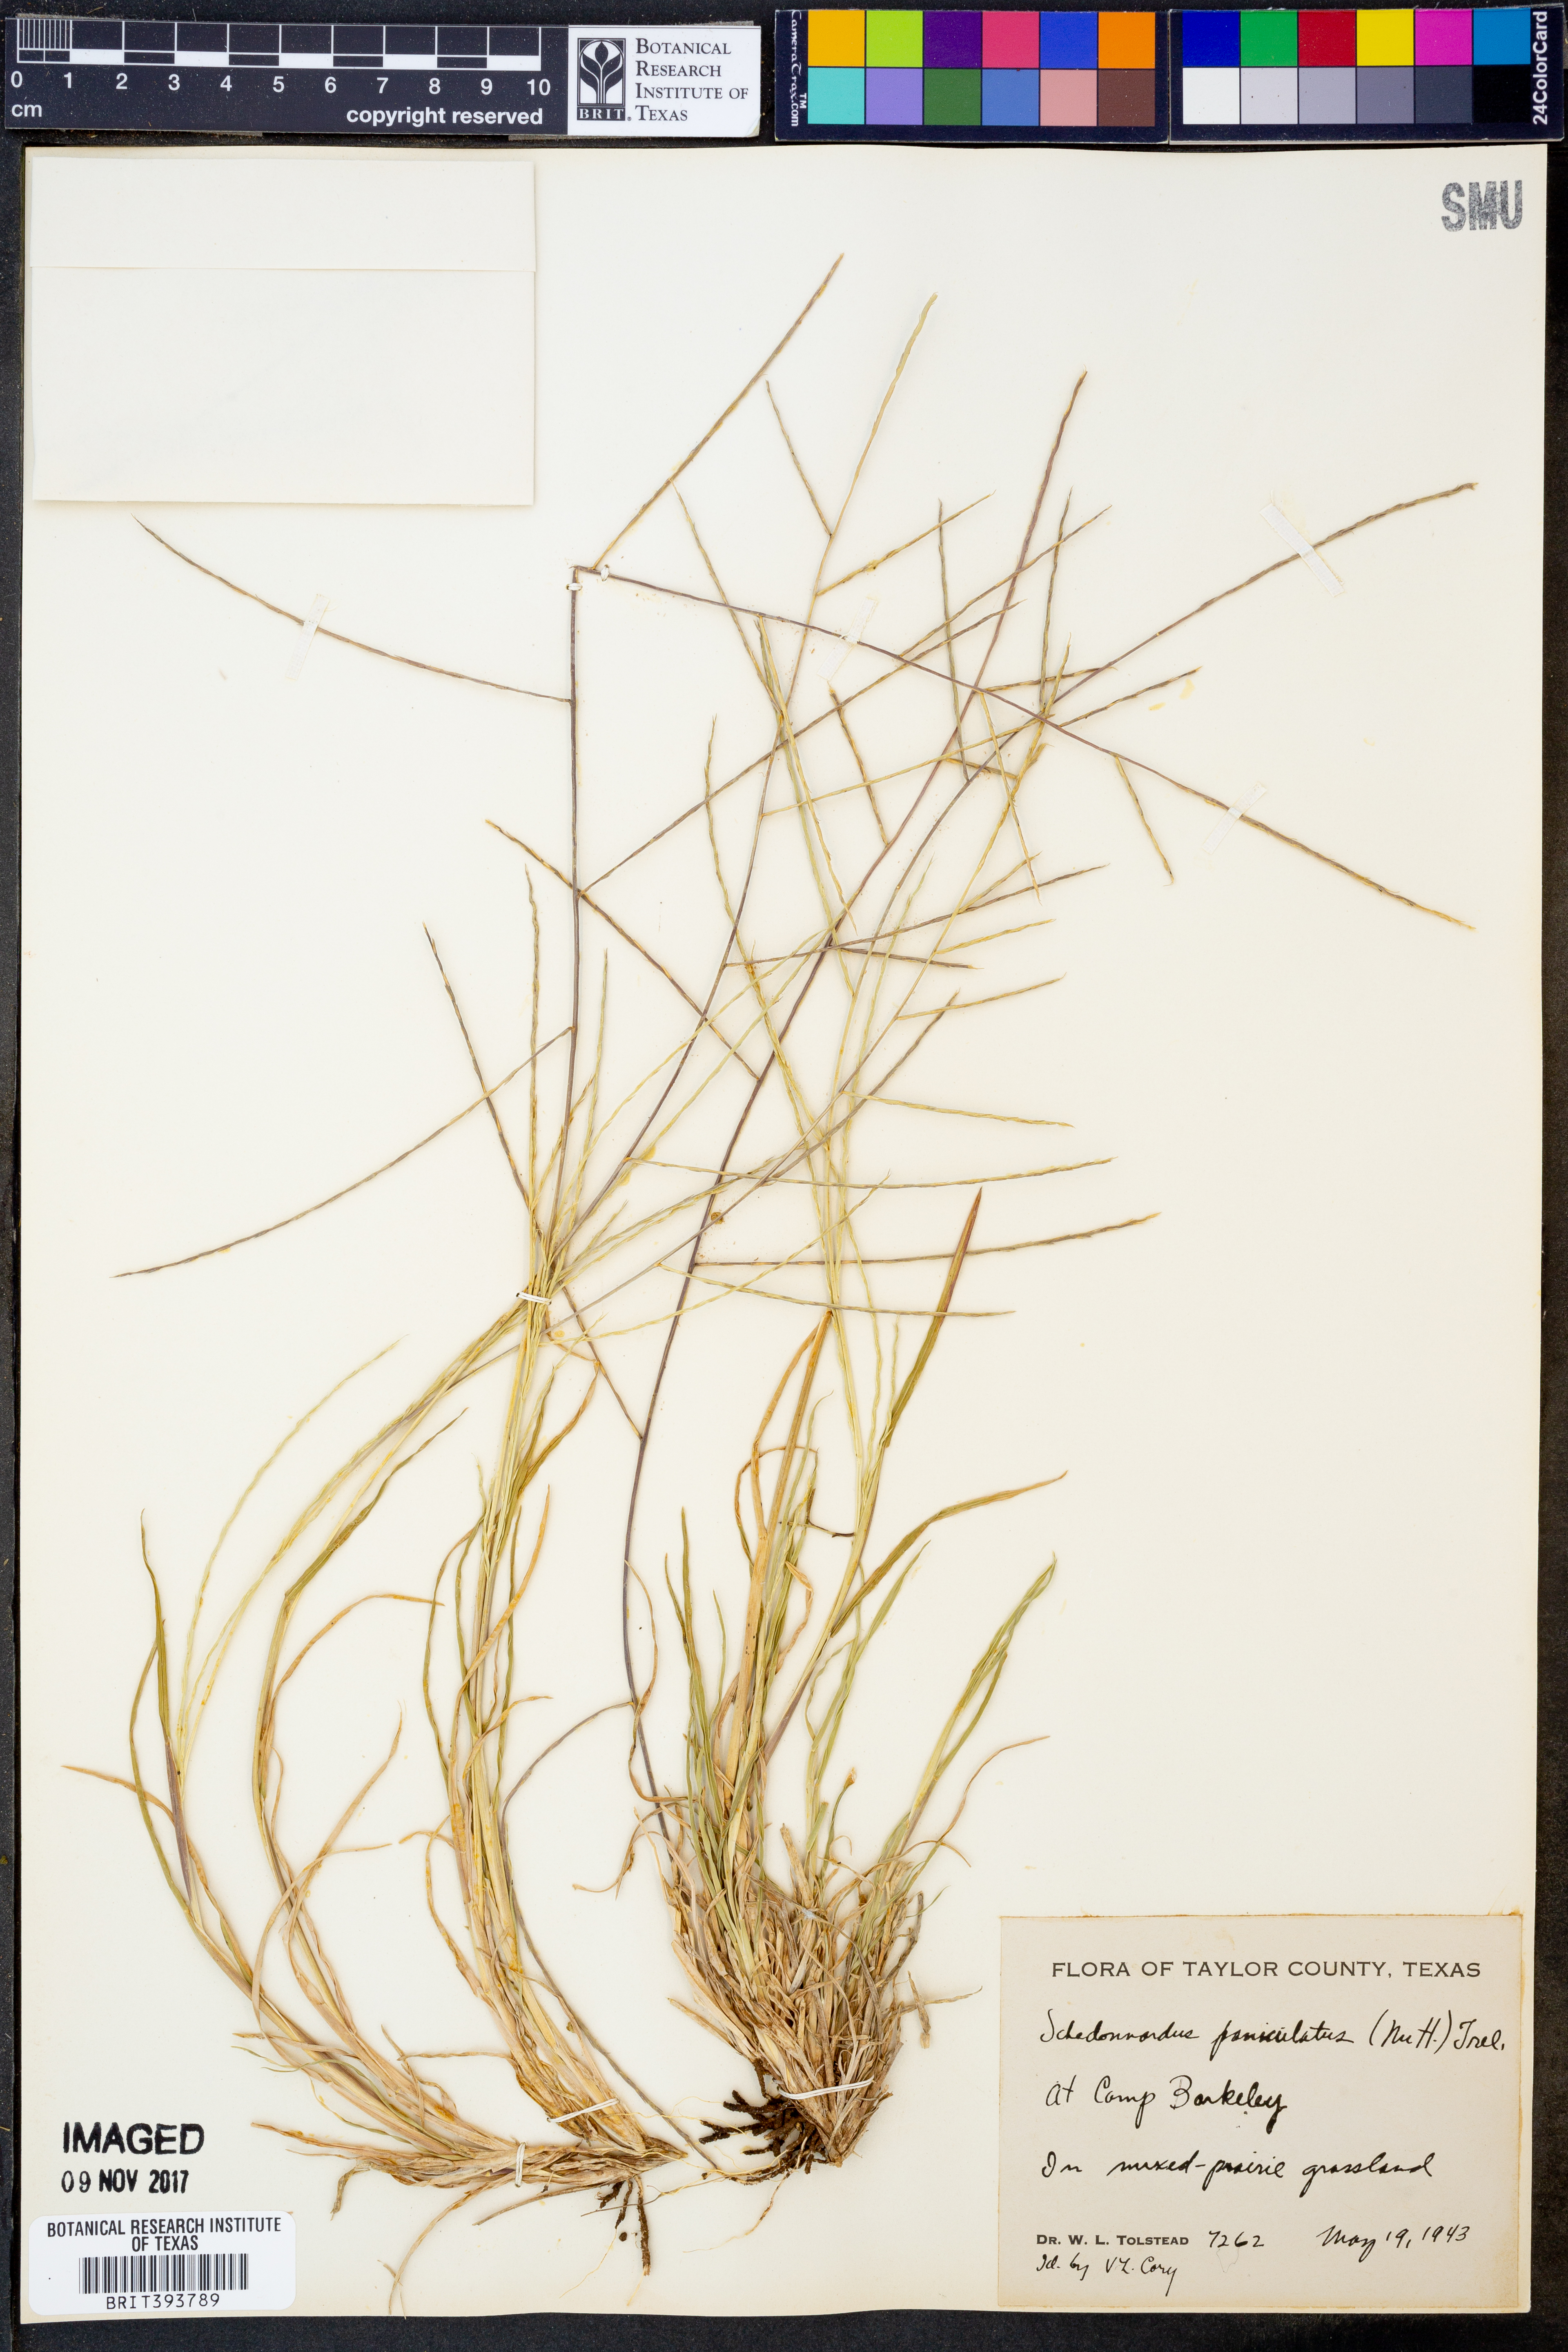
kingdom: Plantae
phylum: Tracheophyta
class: Liliopsida
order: Poales
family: Poaceae
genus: Muhlenbergia
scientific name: Muhlenbergia paniculata
